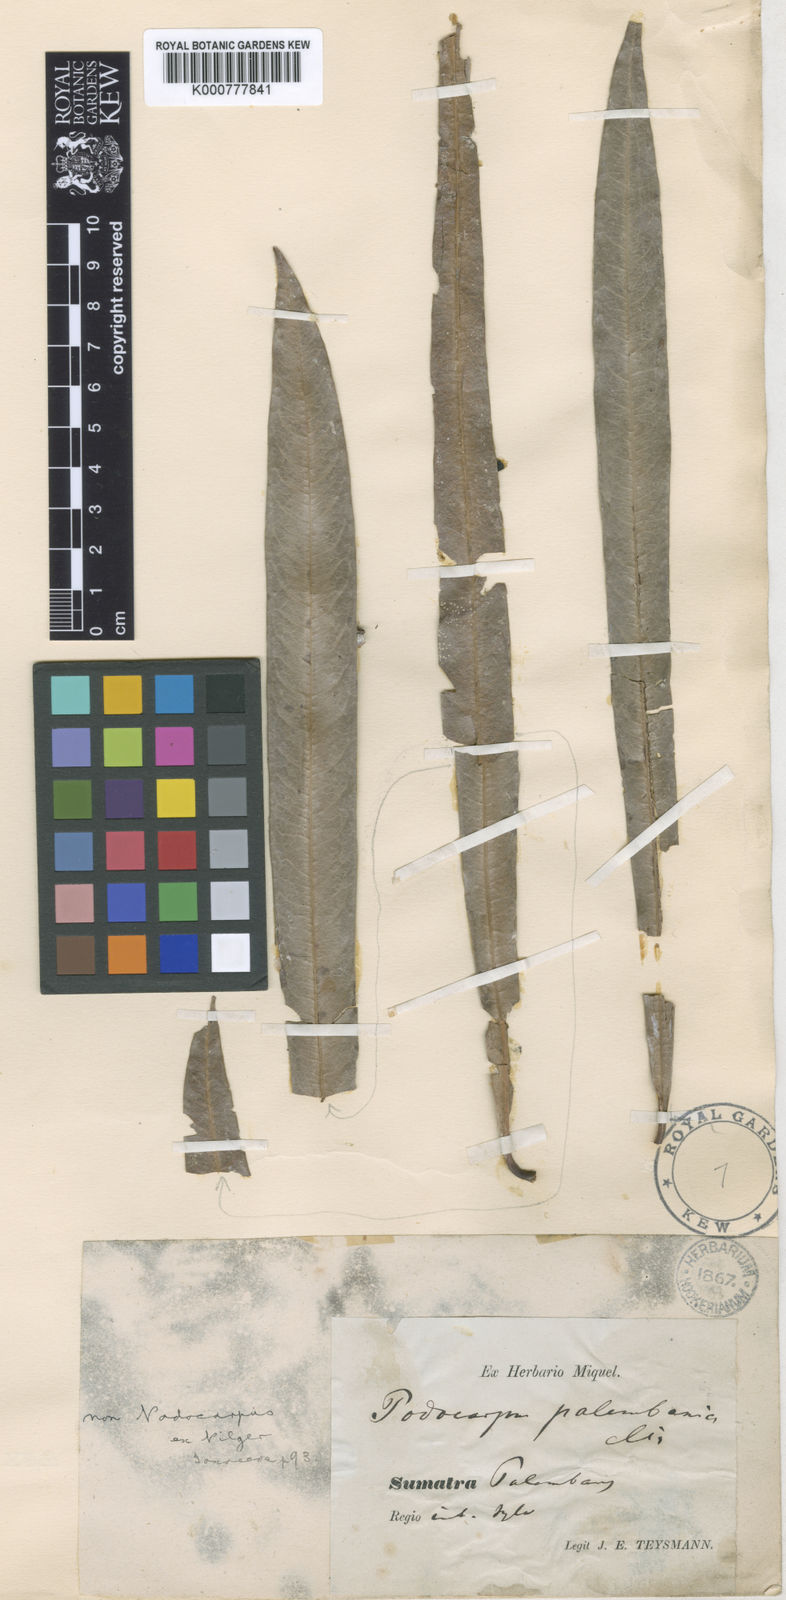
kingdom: Plantae
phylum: Tracheophyta
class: Magnoliopsida
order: Ericales
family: Sapotaceae
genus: Madhuca
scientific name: Madhuca palembanica
